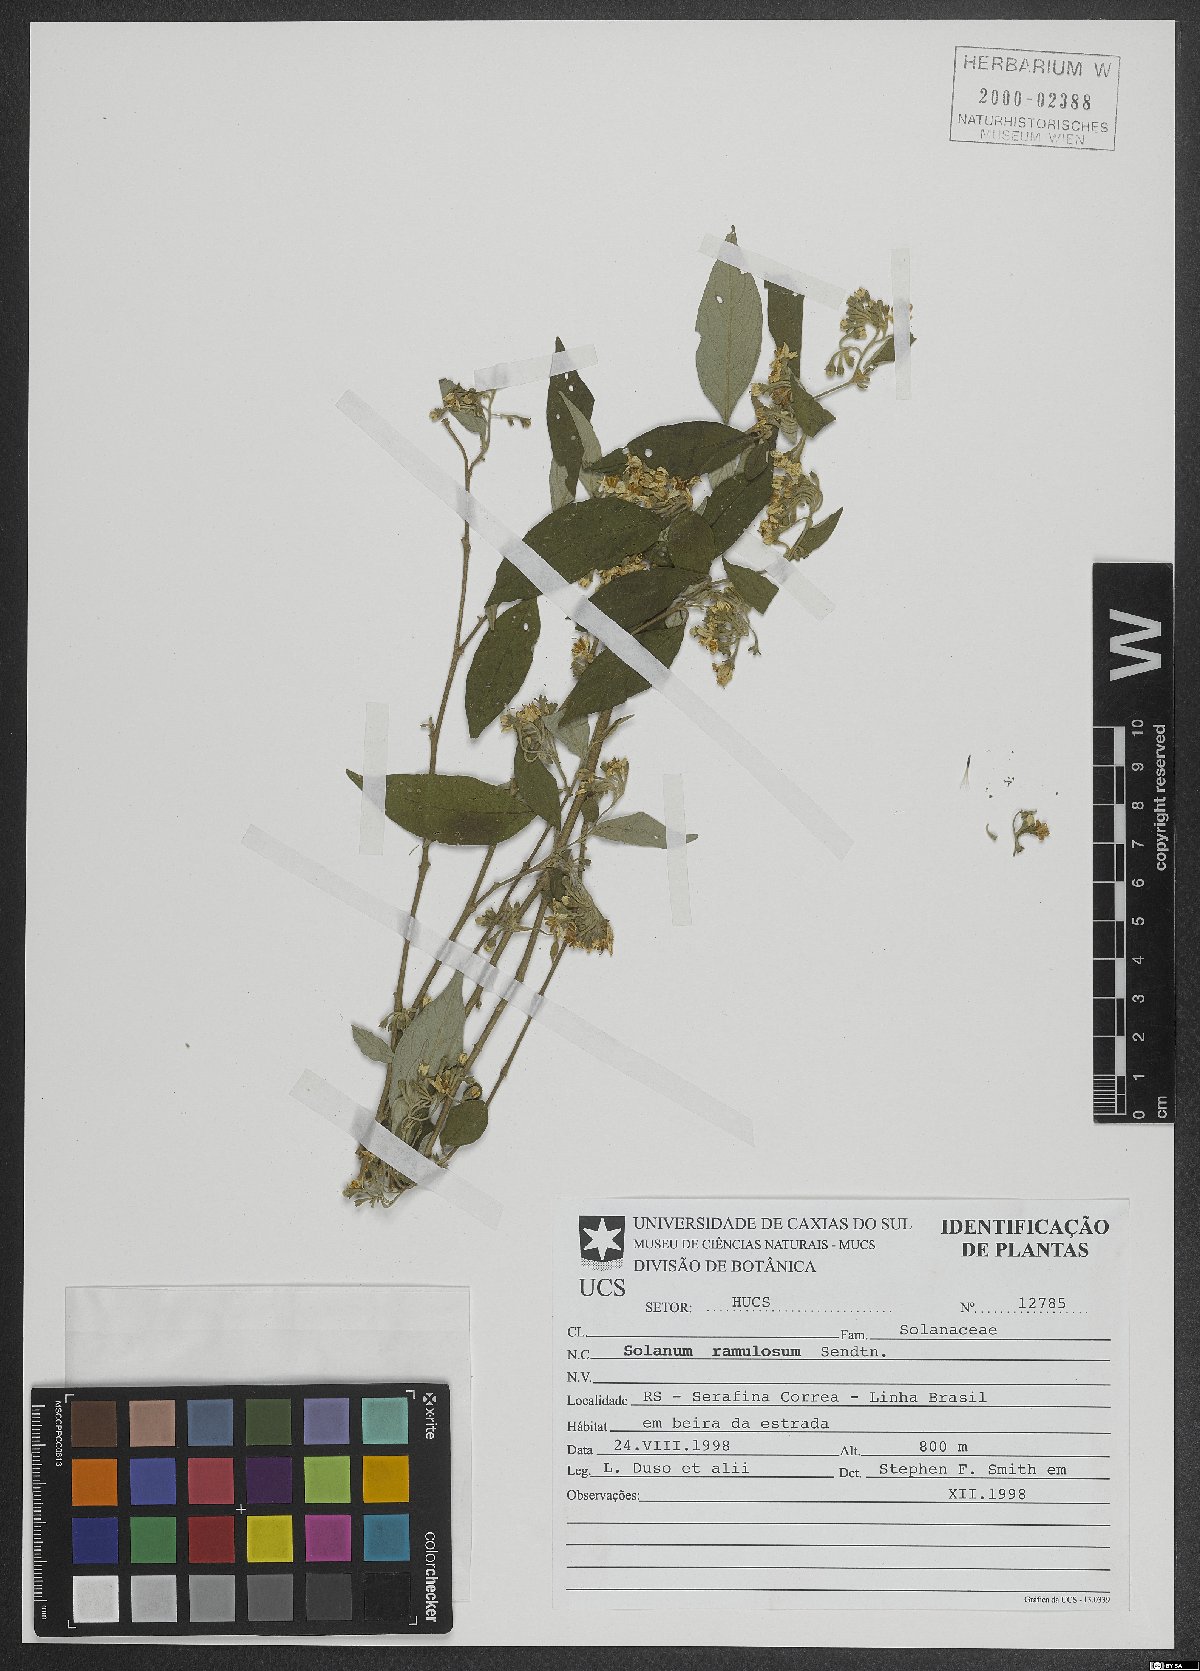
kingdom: Plantae
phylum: Tracheophyta
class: Magnoliopsida
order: Solanales
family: Solanaceae
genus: Solanum
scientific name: Solanum ramulosum
